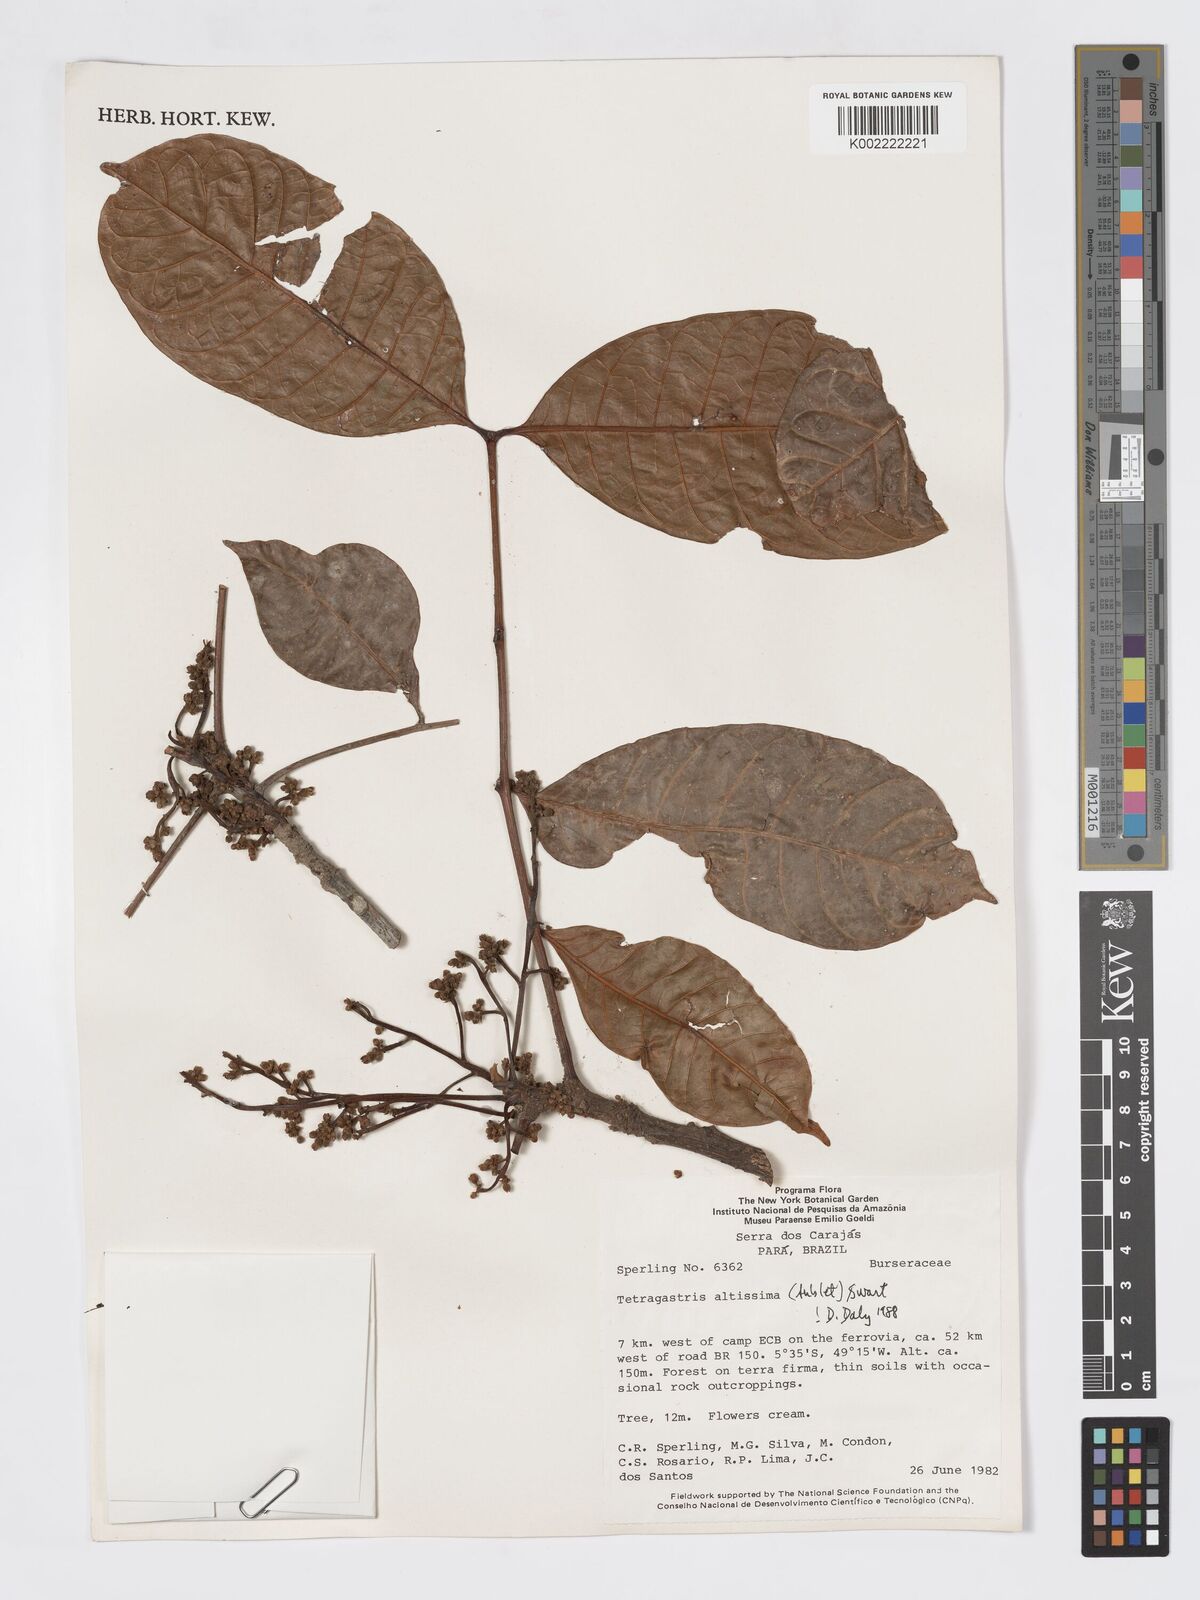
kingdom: Plantae
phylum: Tracheophyta
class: Magnoliopsida
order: Sapindales
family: Burseraceae
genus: Tetragastris
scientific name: Tetragastris altissima
